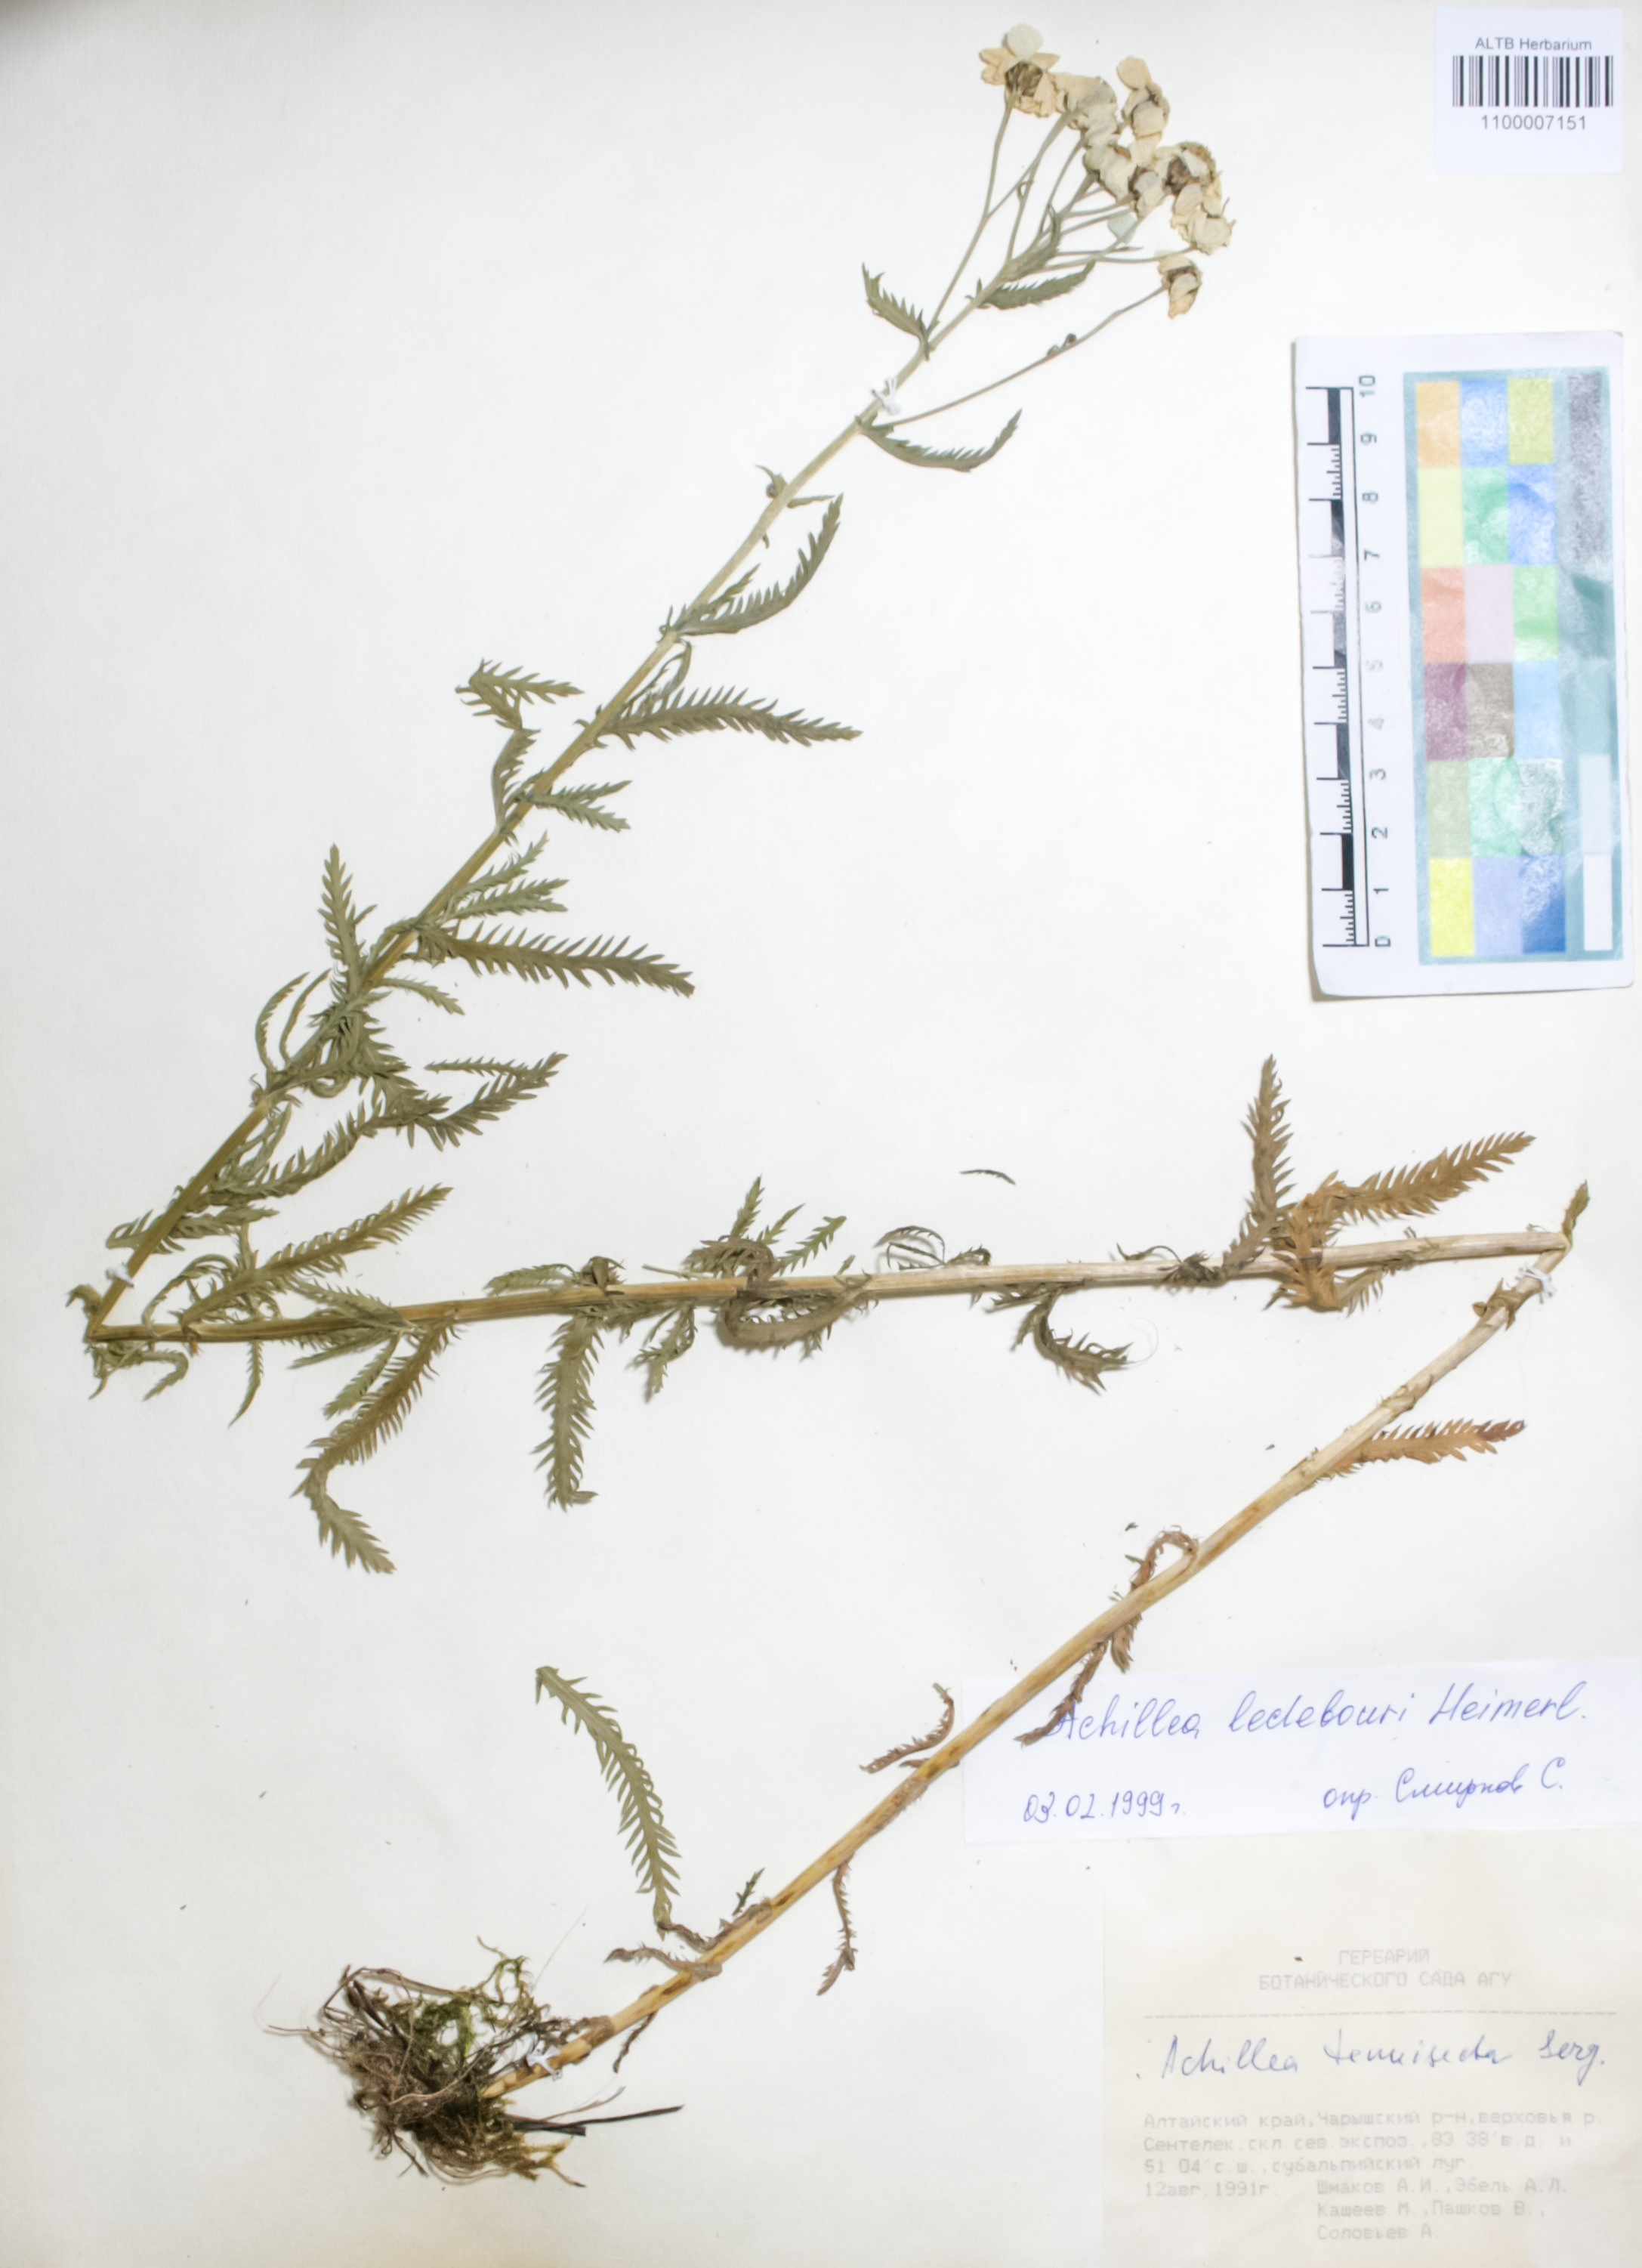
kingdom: Plantae
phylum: Tracheophyta
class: Magnoliopsida
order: Asterales
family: Asteraceae
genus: Achillea
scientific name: Achillea ledebourii
